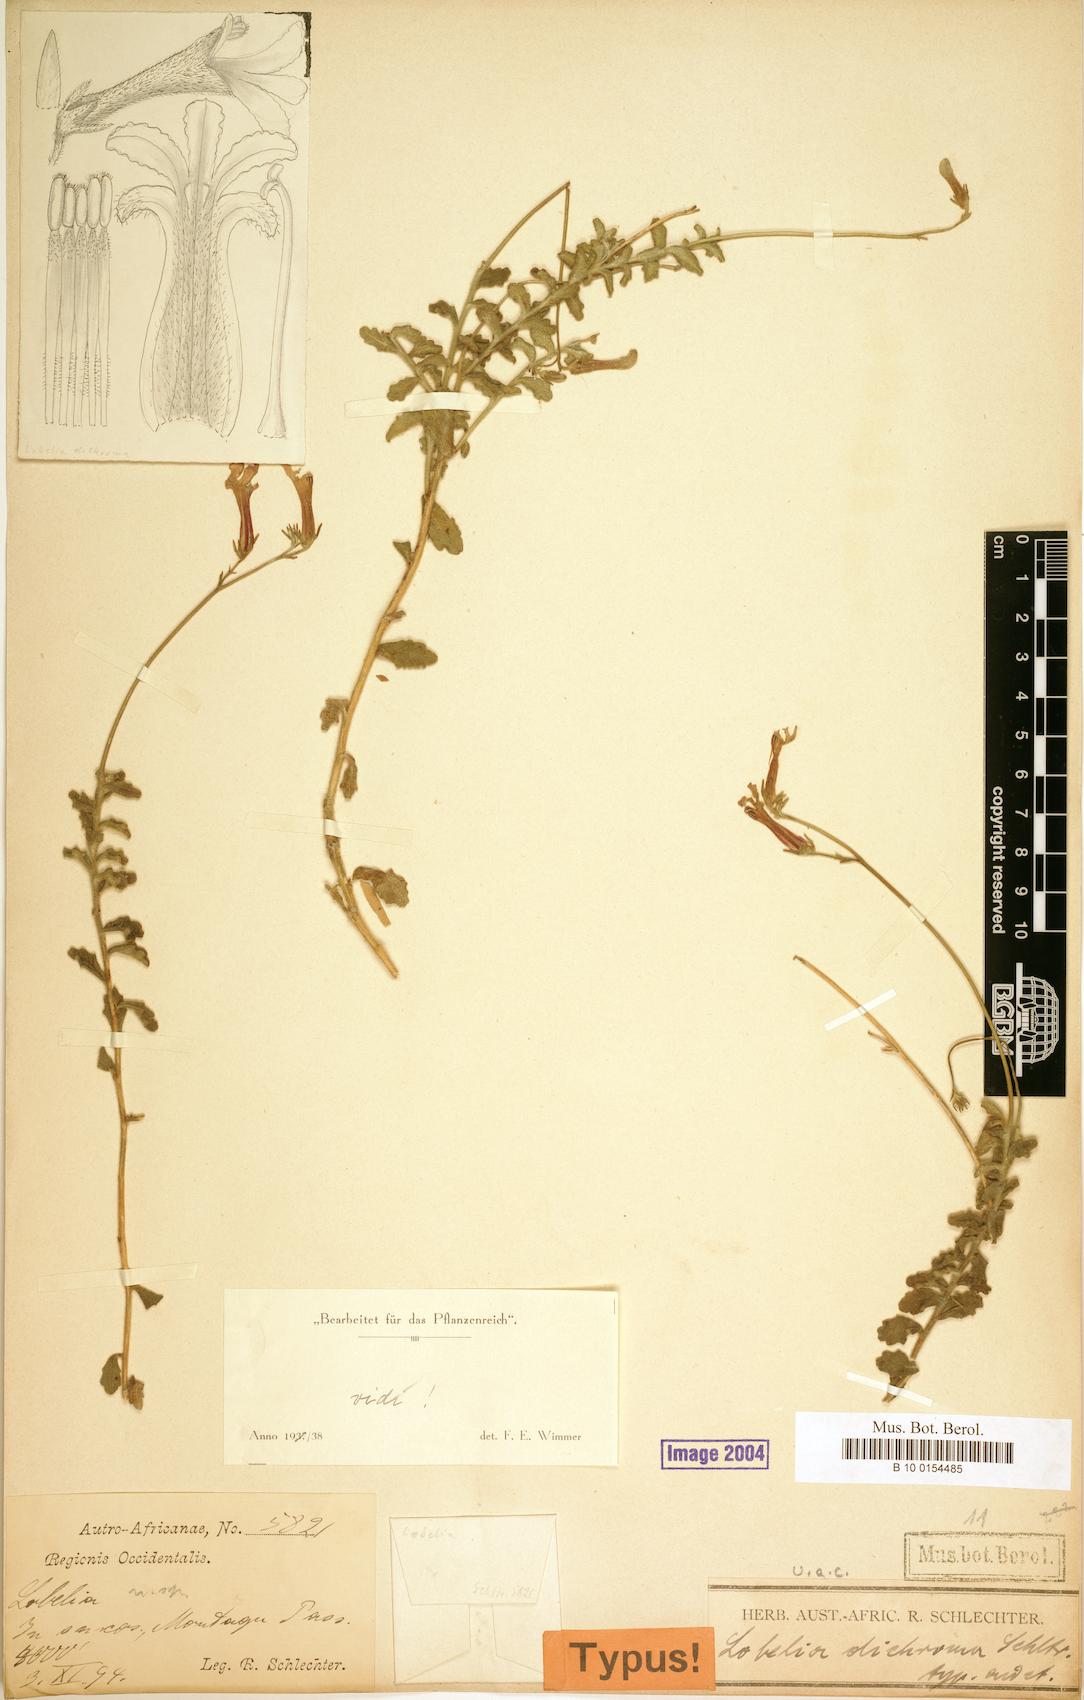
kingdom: Plantae
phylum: Tracheophyta
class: Magnoliopsida
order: Asterales
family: Campanulaceae
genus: Lobelia
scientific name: Lobelia dichroma
